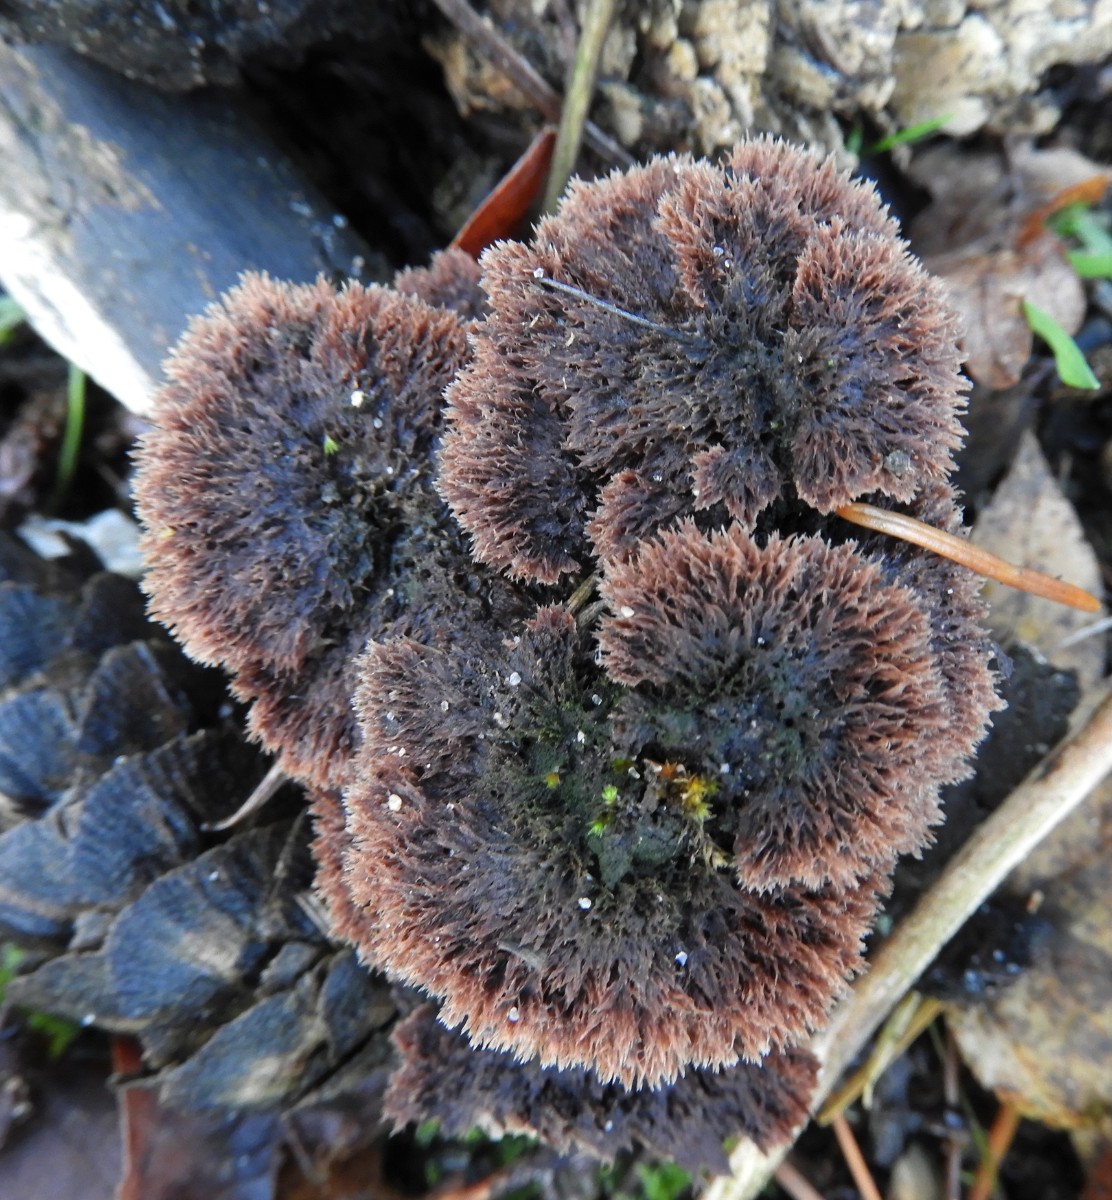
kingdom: Fungi
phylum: Basidiomycota
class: Agaricomycetes
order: Thelephorales
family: Thelephoraceae
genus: Thelephora
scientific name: Thelephora terrestris
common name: fliget frynsesvamp
